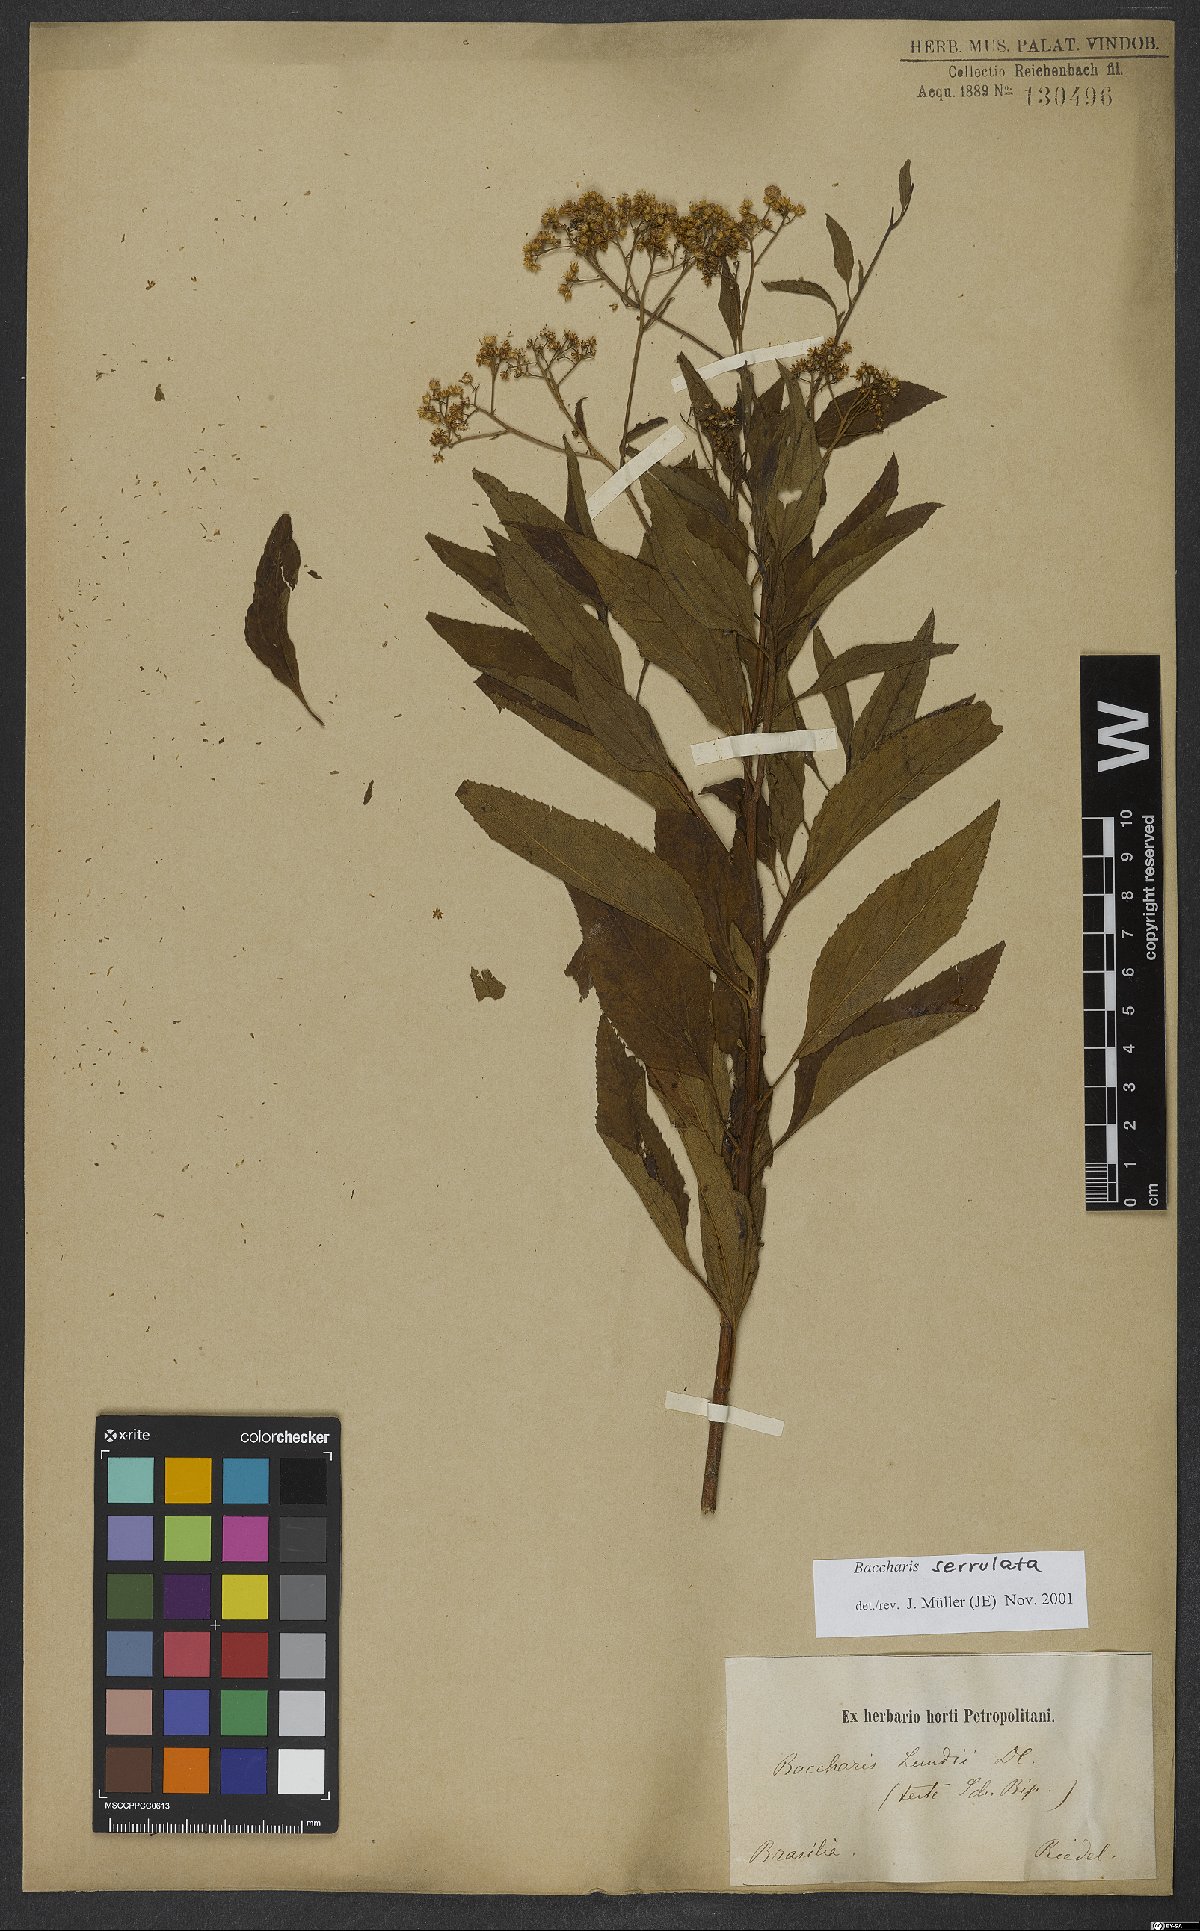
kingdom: Plantae
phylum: Tracheophyta
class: Magnoliopsida
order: Asterales
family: Asteraceae
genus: Archibaccharis
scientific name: Archibaccharis vulneraria
